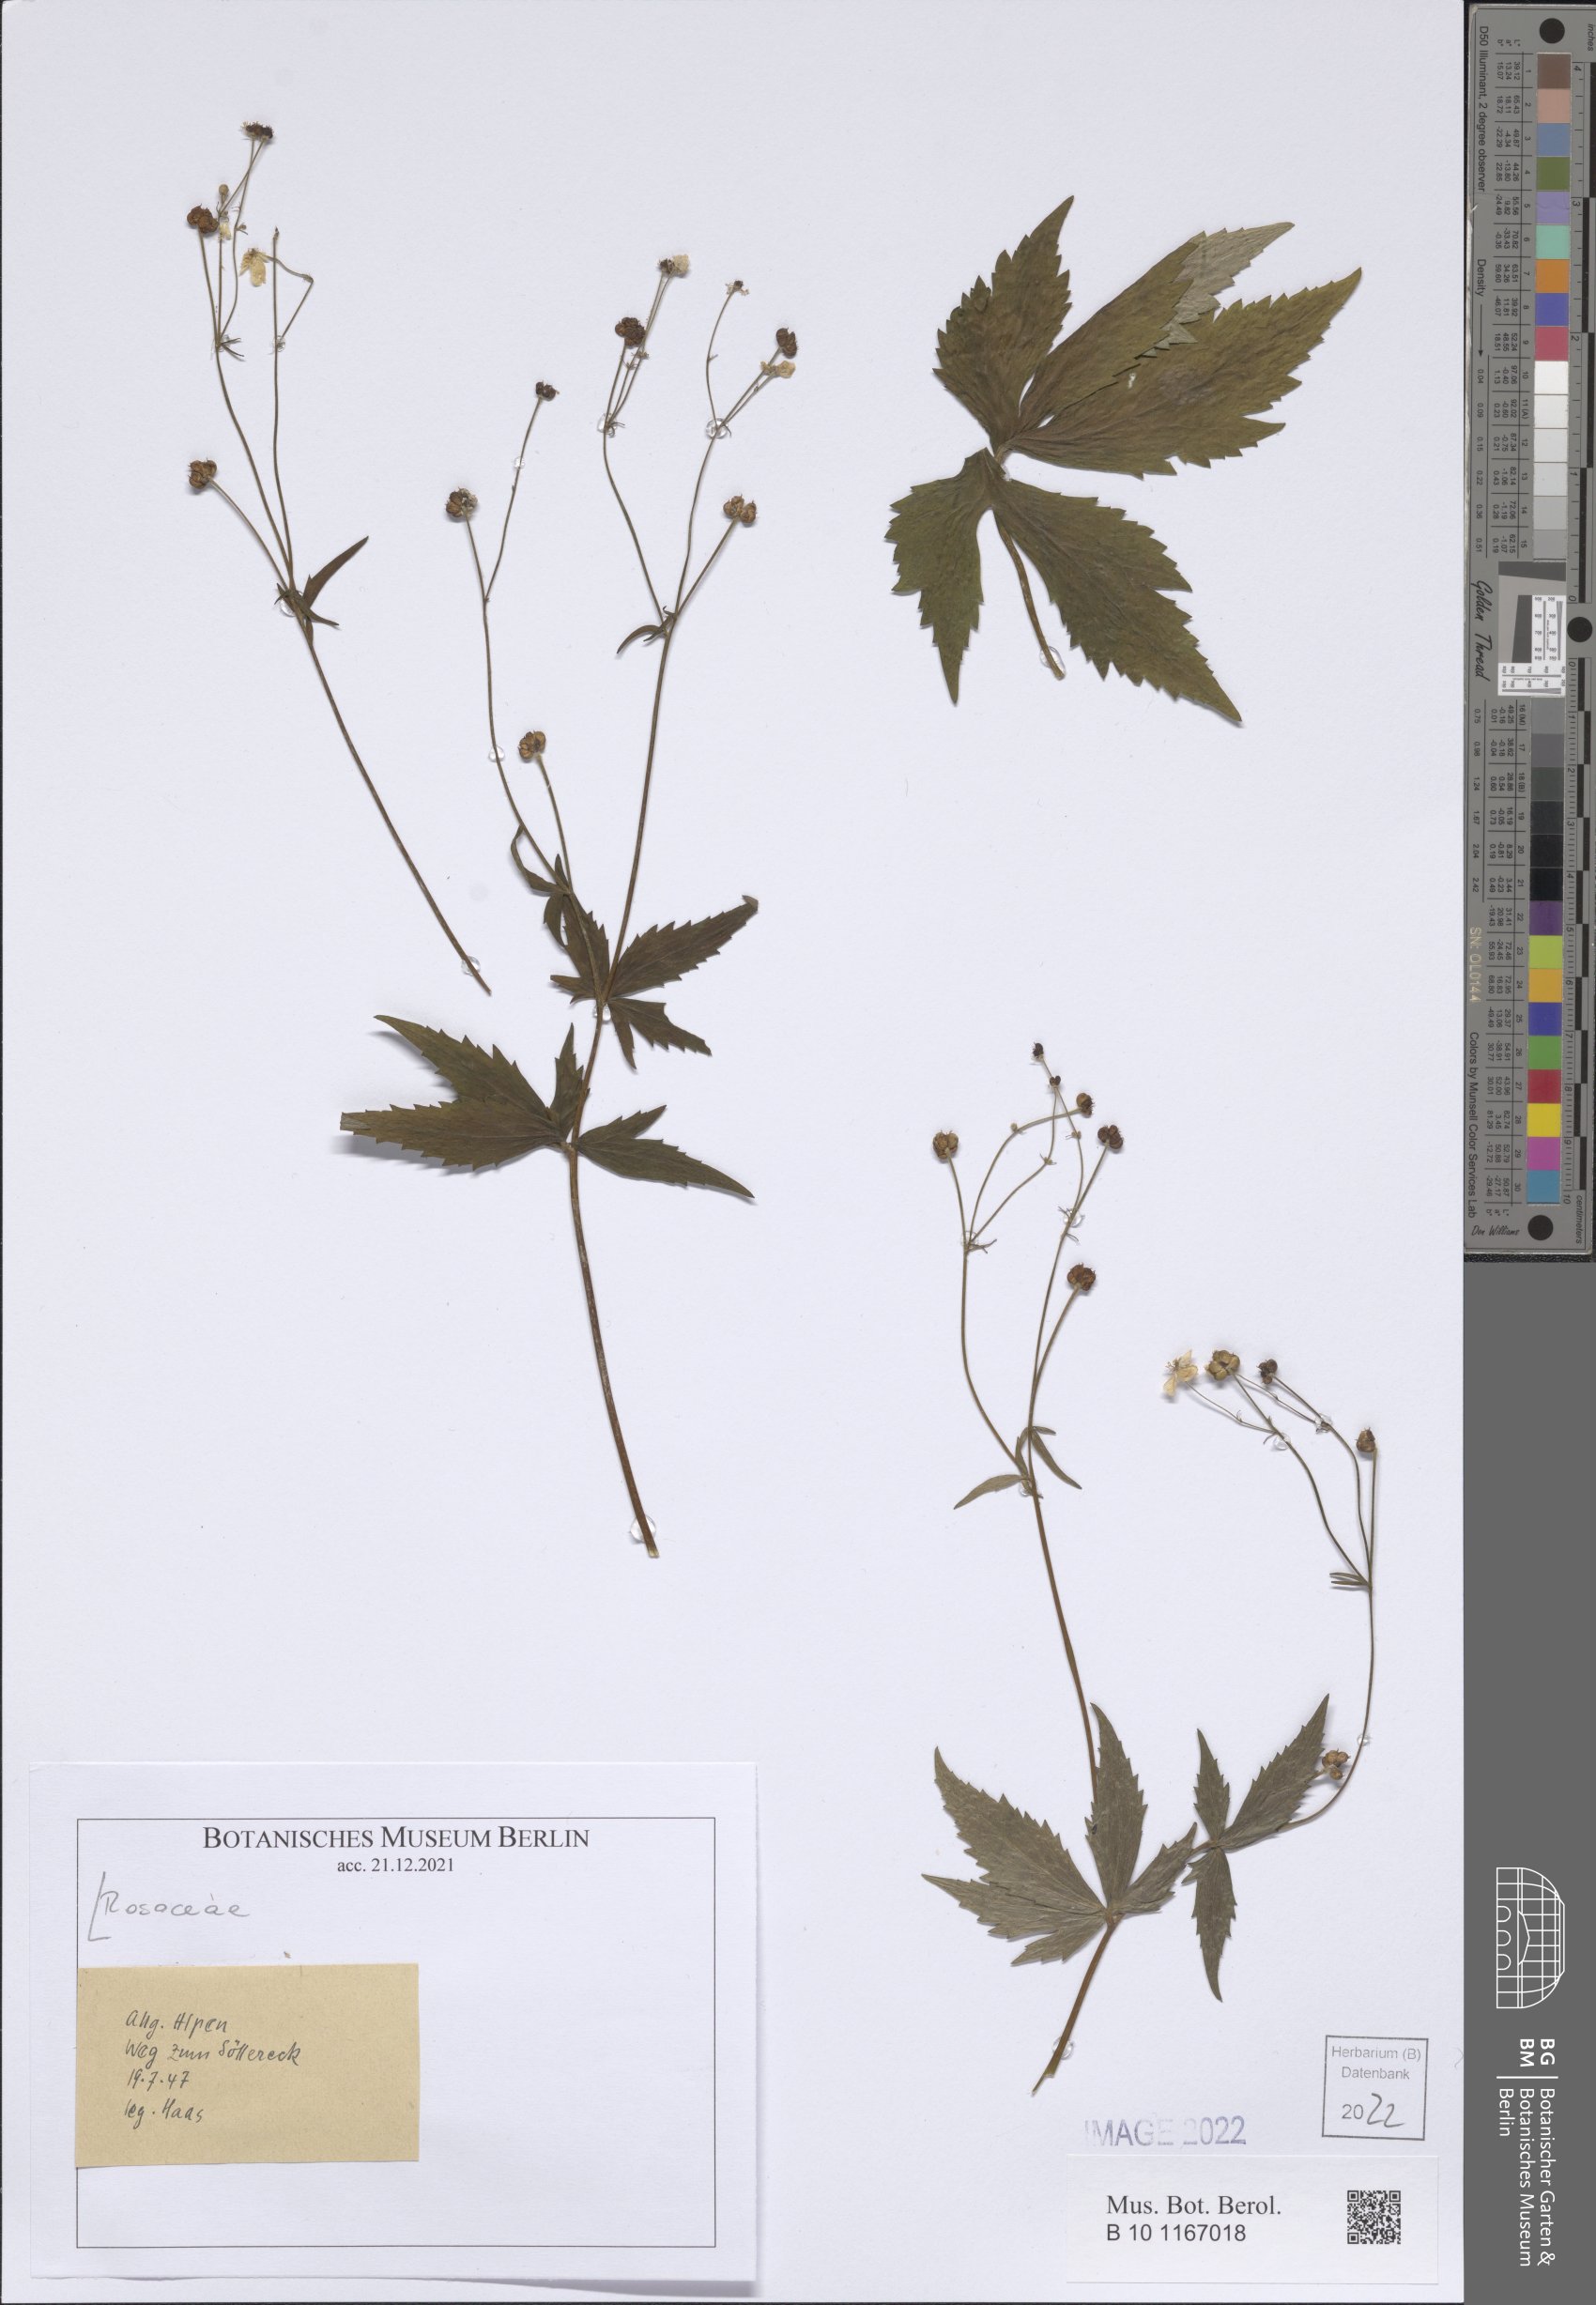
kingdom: Plantae
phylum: Tracheophyta
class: Magnoliopsida
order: Rosales
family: Rosaceae
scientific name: Rosaceae
